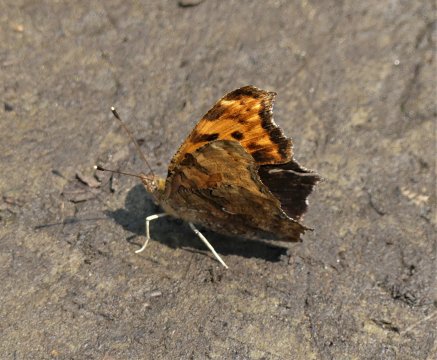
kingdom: Animalia
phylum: Arthropoda
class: Insecta
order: Lepidoptera
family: Nymphalidae
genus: Polygonia
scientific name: Polygonia comma
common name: Eastern Comma
